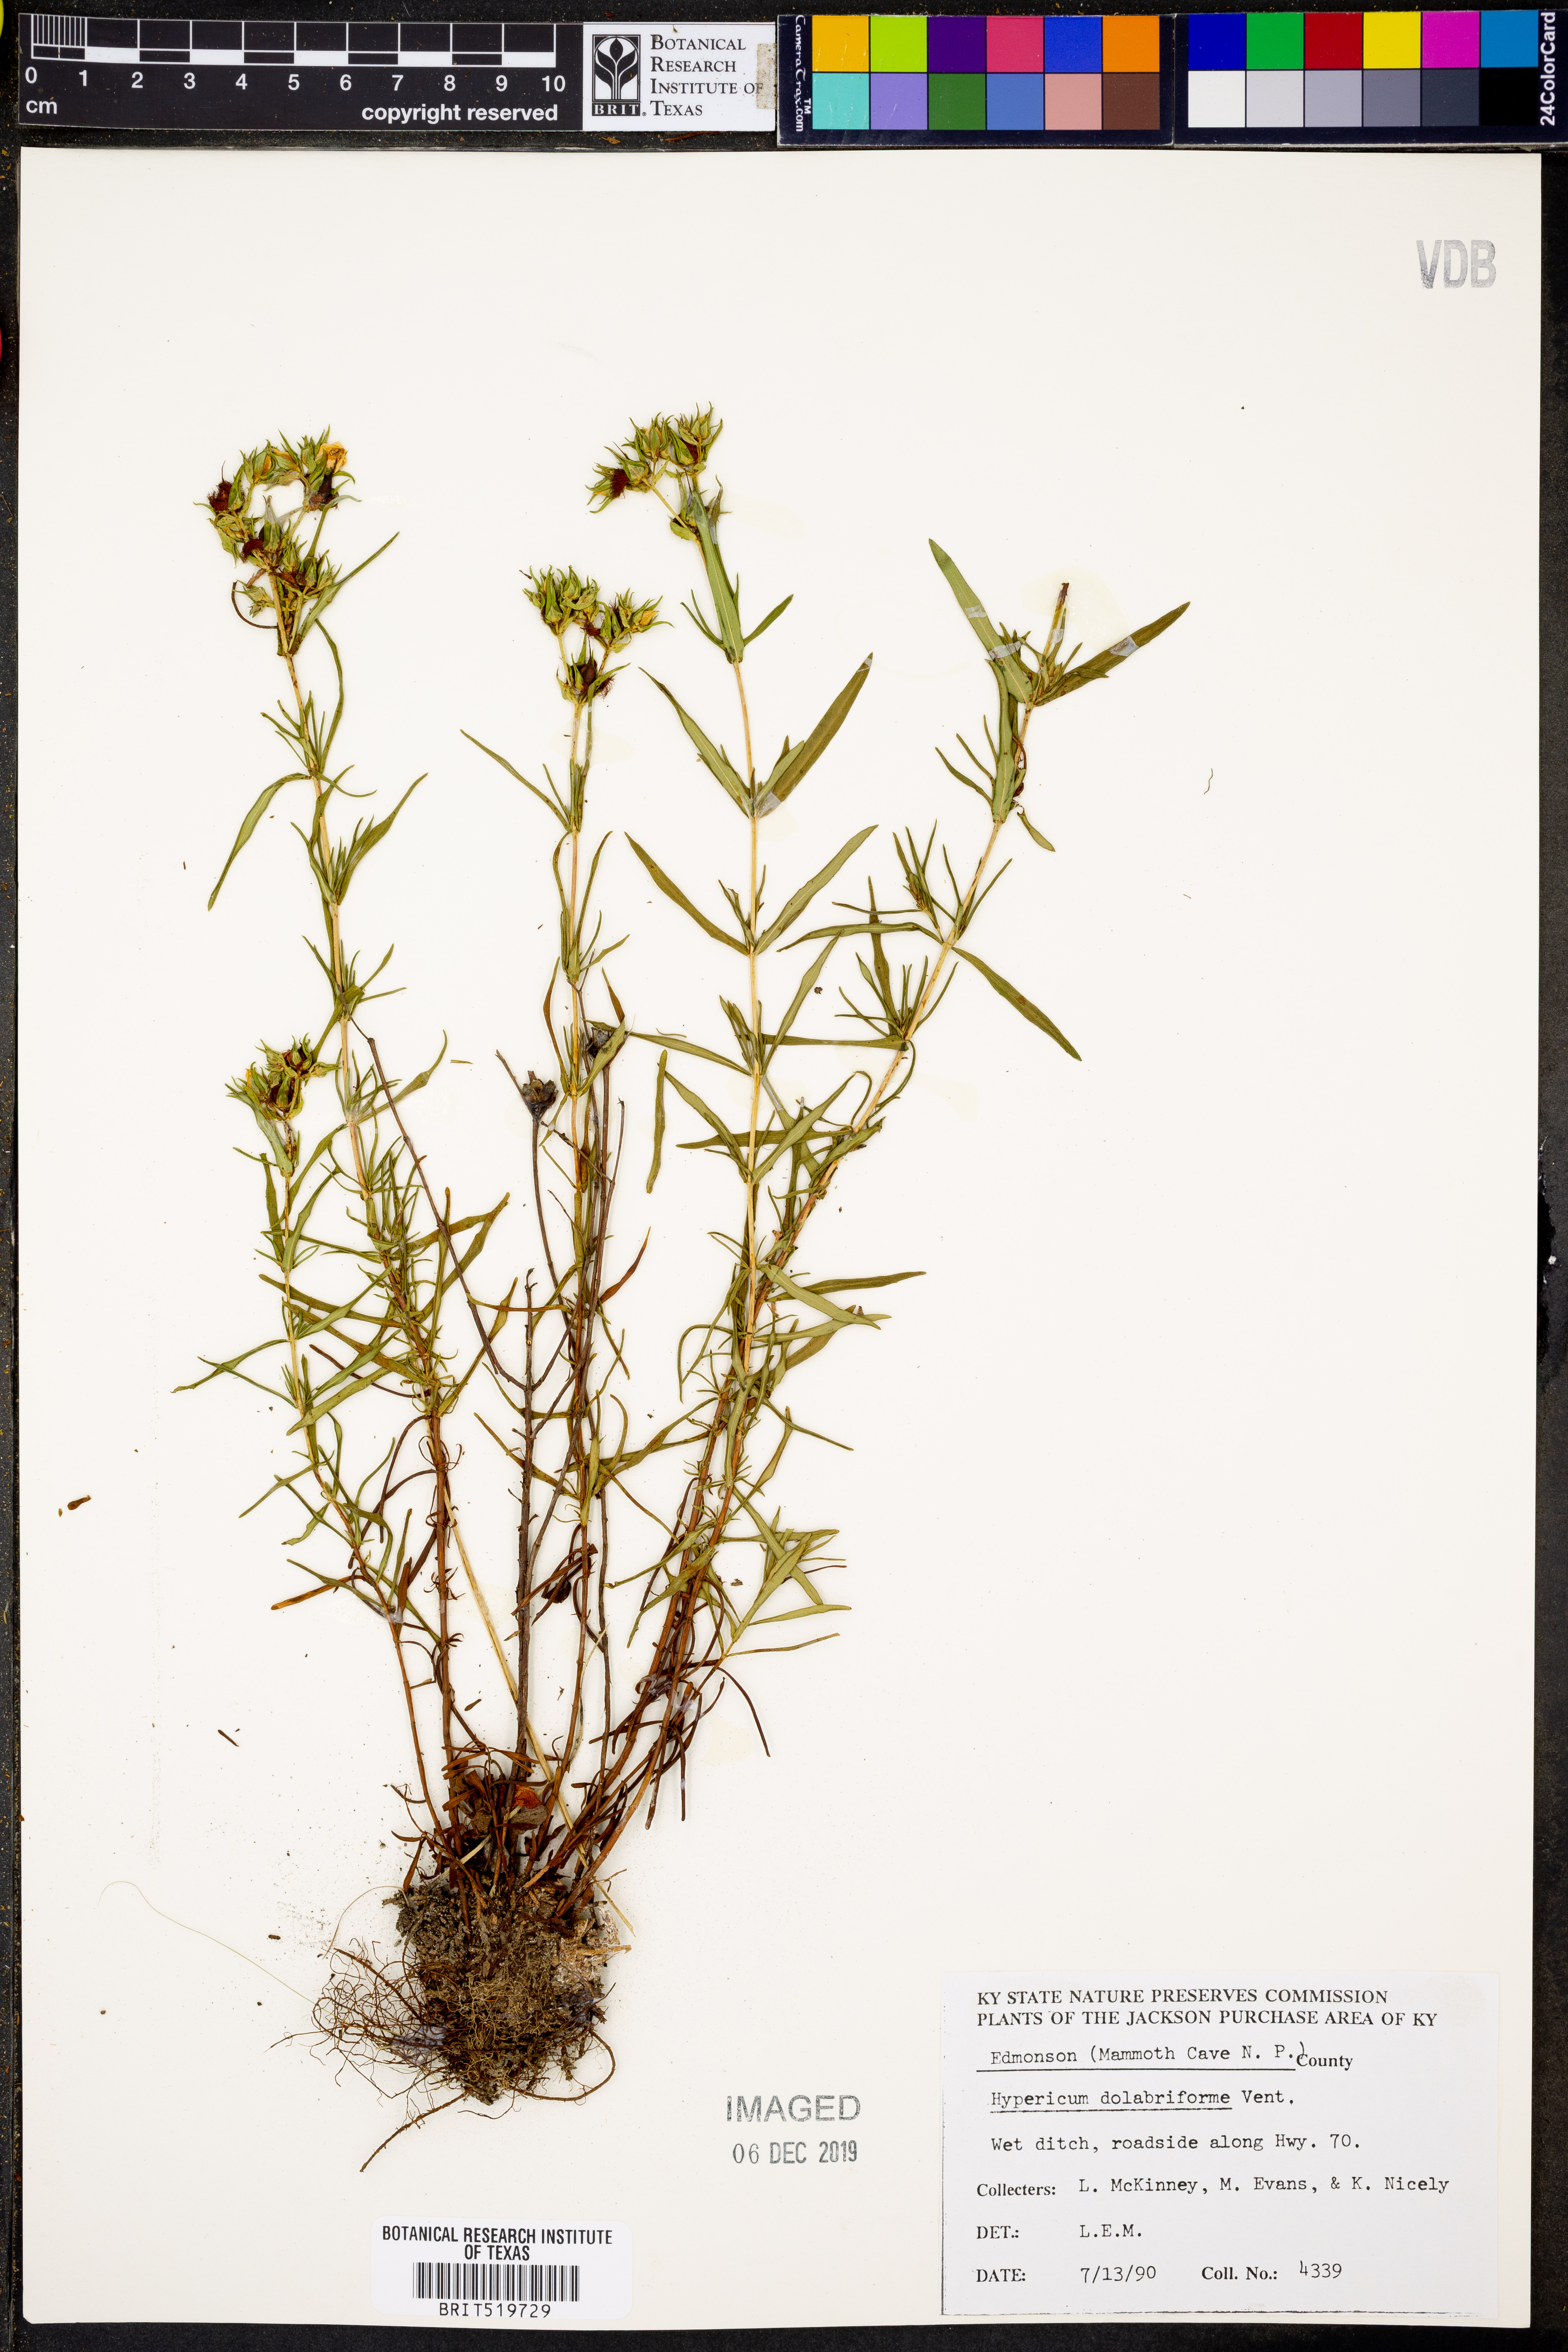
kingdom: Plantae
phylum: Tracheophyta
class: Magnoliopsida
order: Malpighiales
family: Hypericaceae
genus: Hypericum
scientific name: Hypericum dolabriforme
